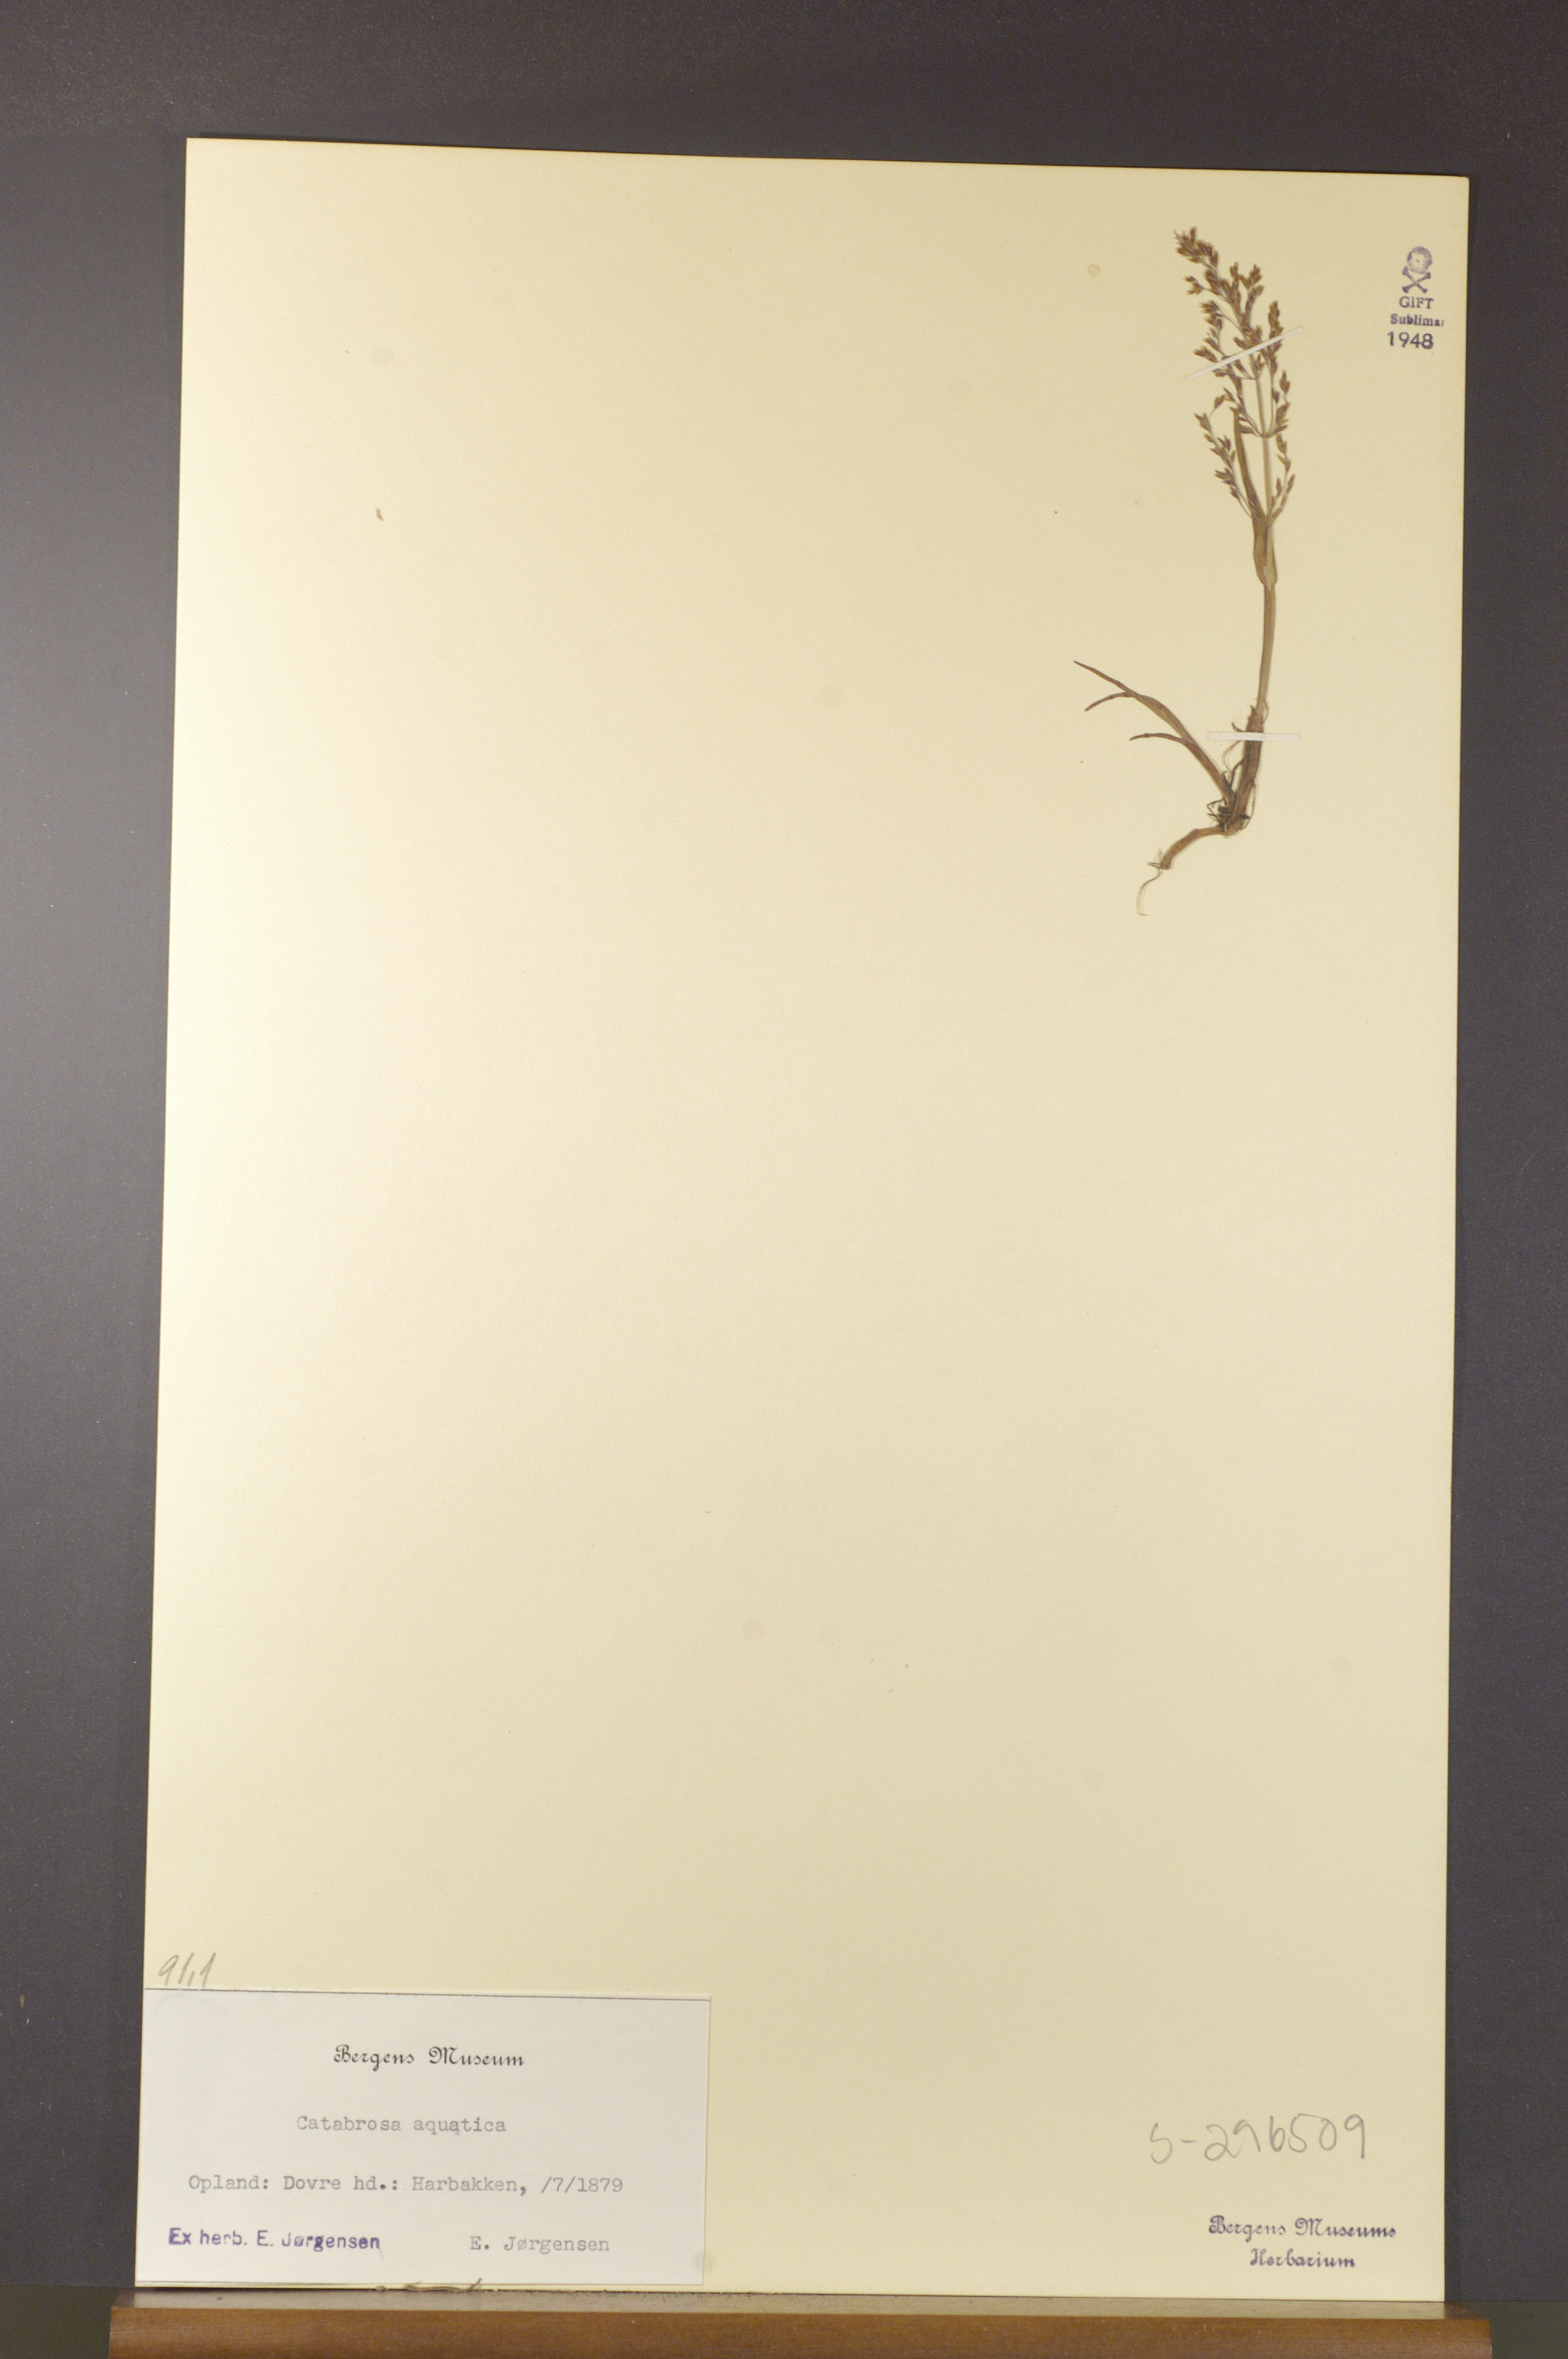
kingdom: Plantae
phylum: Tracheophyta
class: Liliopsida
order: Poales
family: Poaceae
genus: Catabrosa
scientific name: Catabrosa aquatica
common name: Whorl-grass
